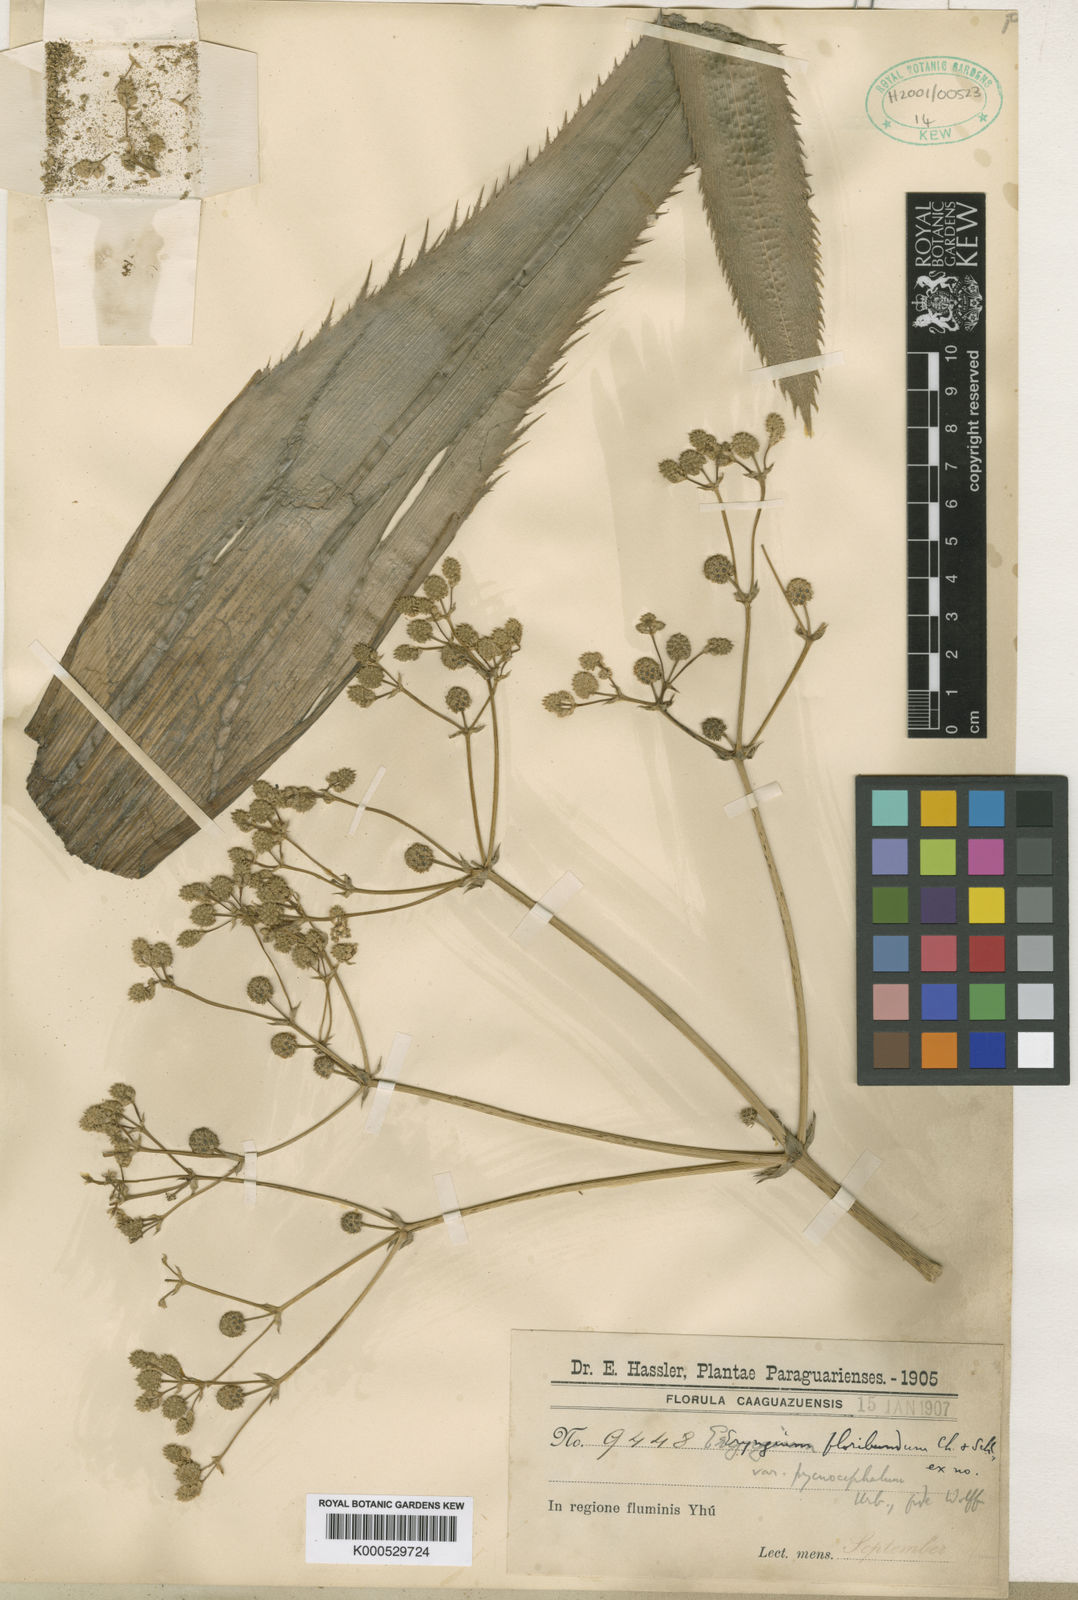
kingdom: Plantae
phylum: Tracheophyta
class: Magnoliopsida
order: Apiales
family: Apiaceae
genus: Eryngium
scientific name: Eryngium floribundum
